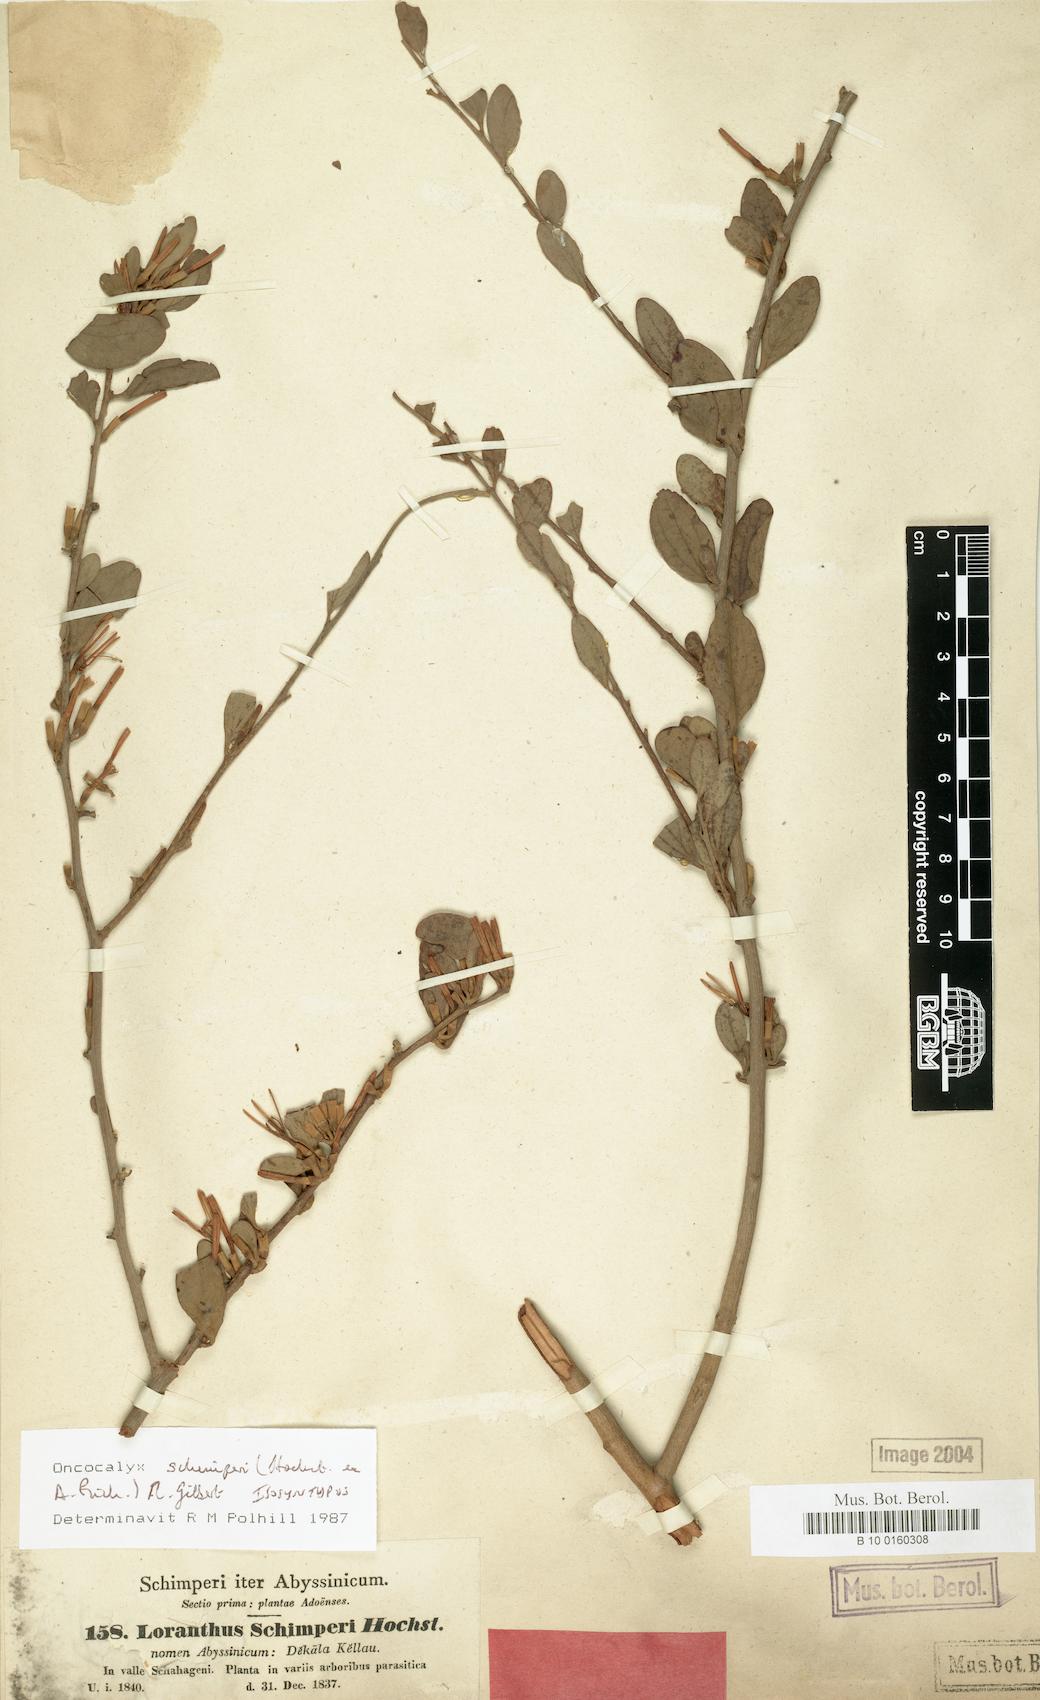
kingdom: Plantae
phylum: Tracheophyta
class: Magnoliopsida
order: Santalales
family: Loranthaceae
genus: Loranthella
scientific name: Loranthella
